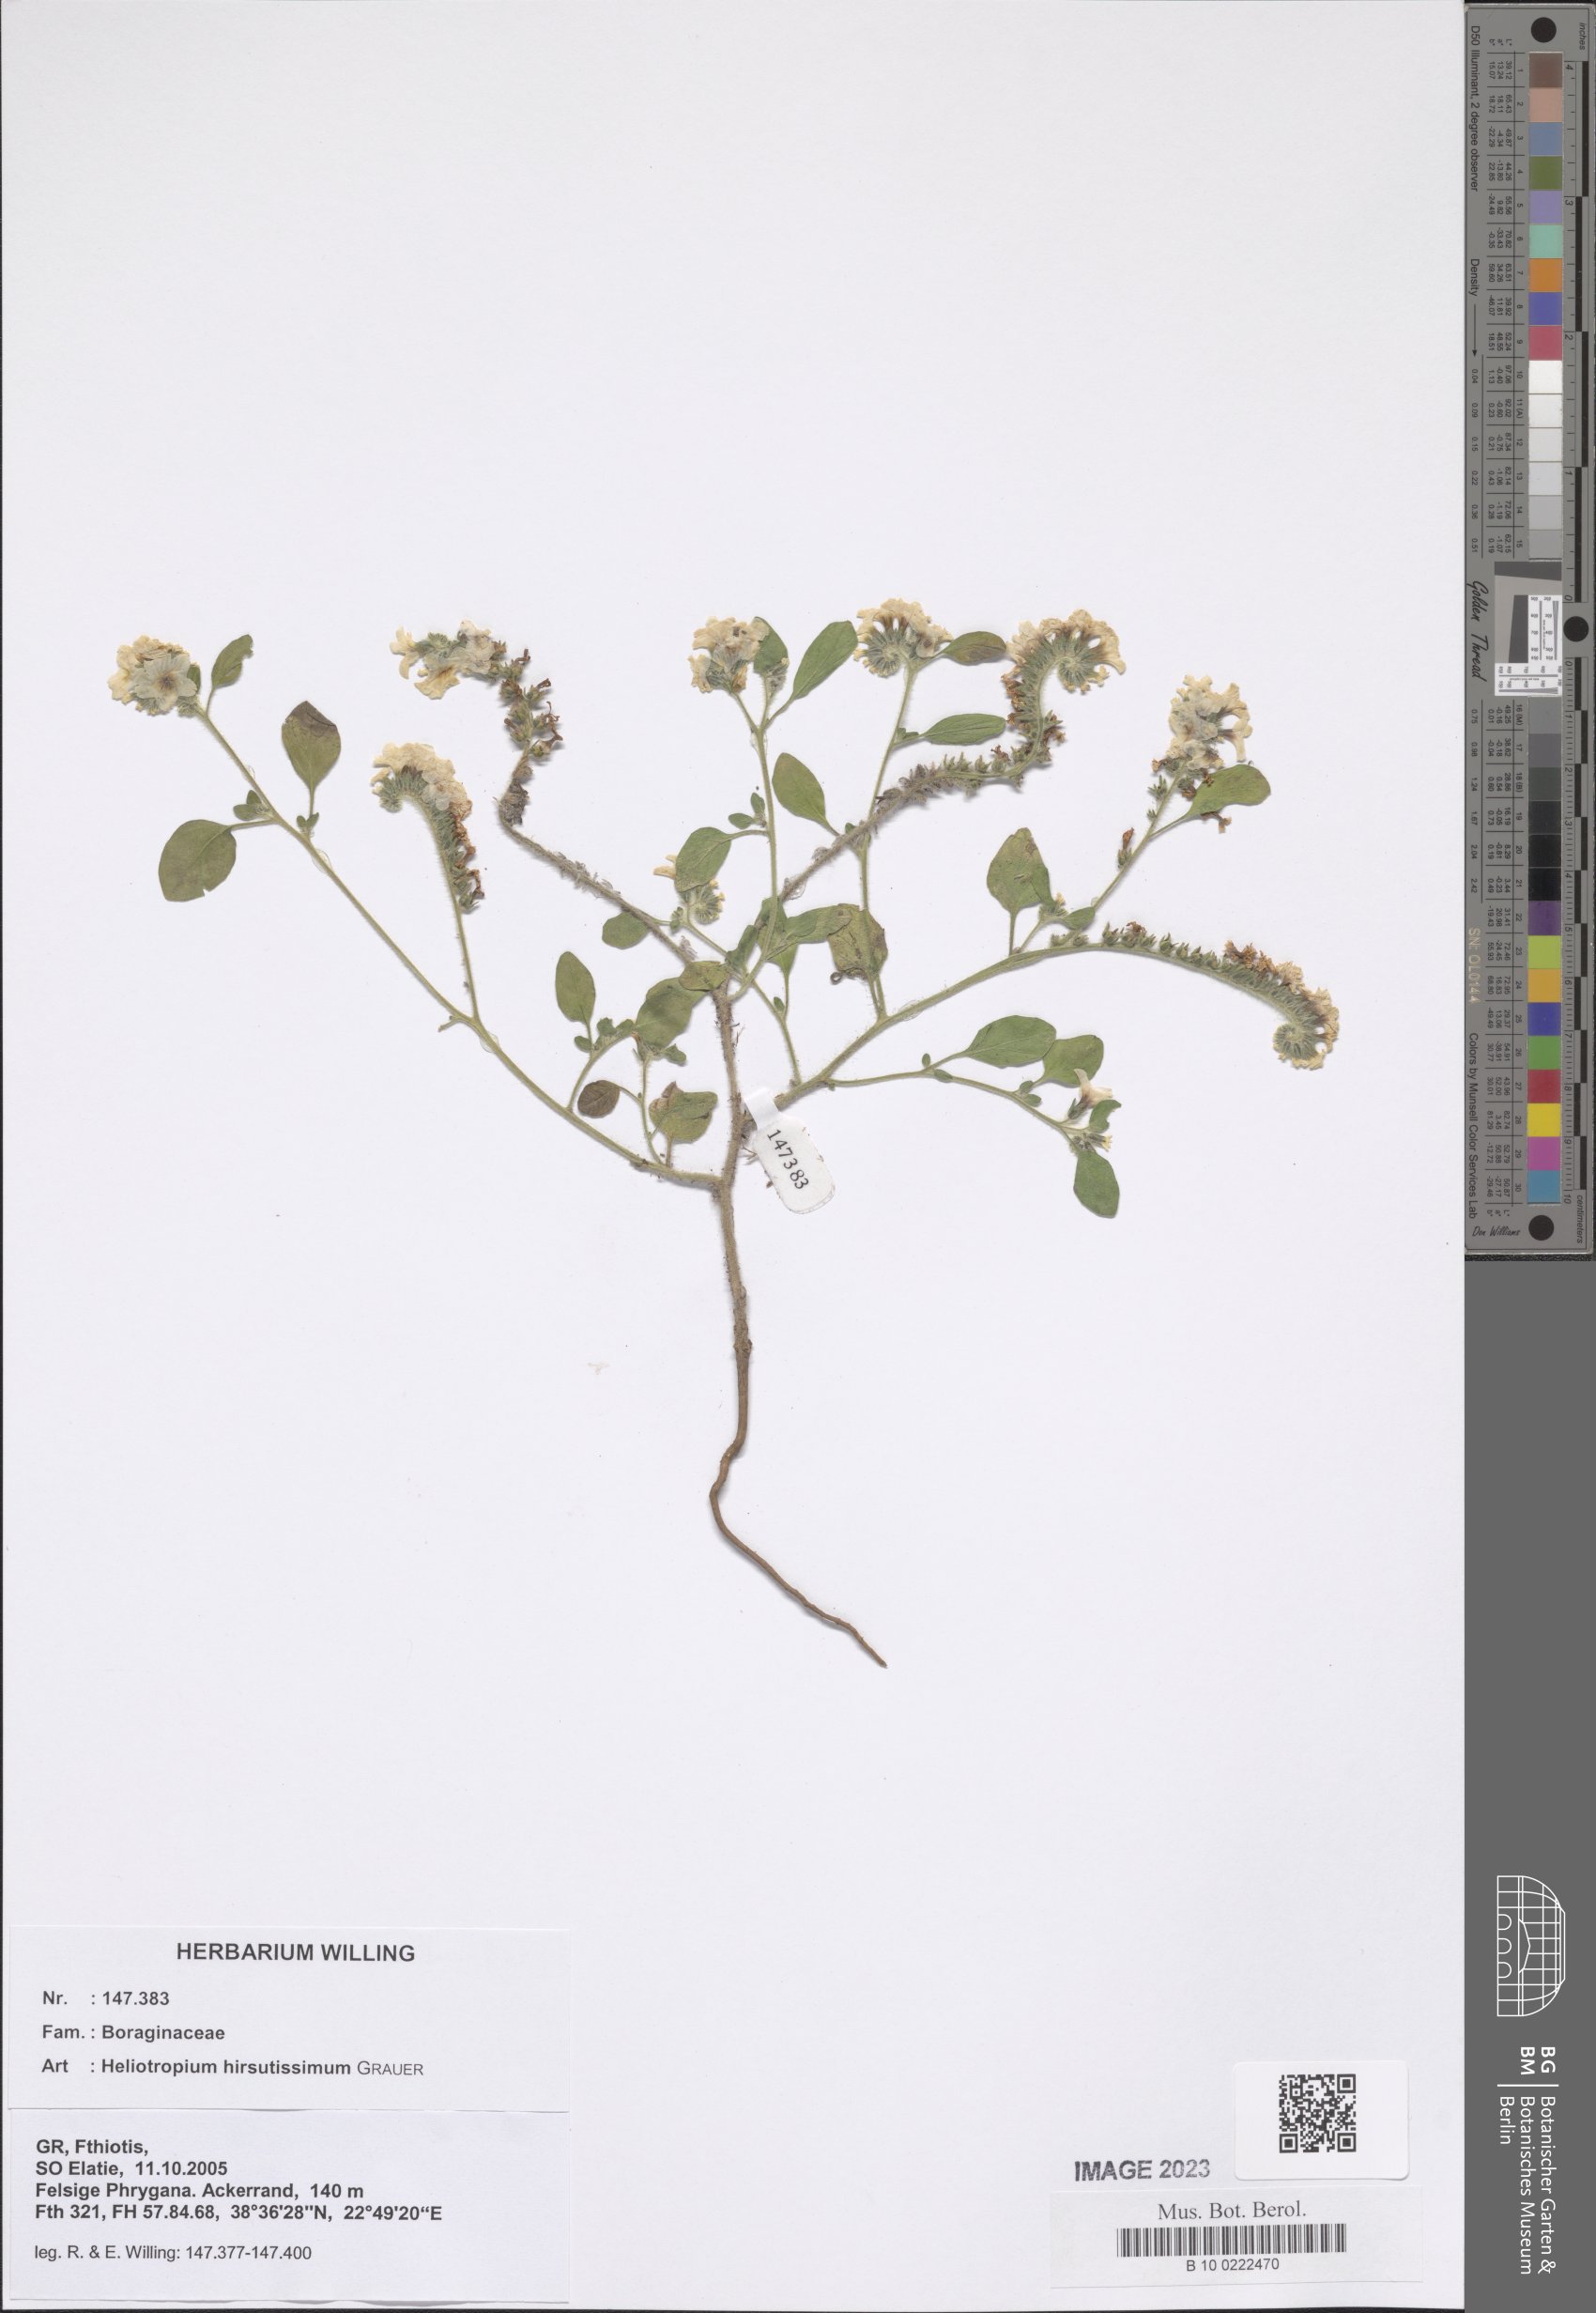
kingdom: Plantae
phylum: Tracheophyta
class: Magnoliopsida
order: Boraginales
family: Heliotropiaceae
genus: Heliotropium
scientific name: Heliotropium hirsutissimum
